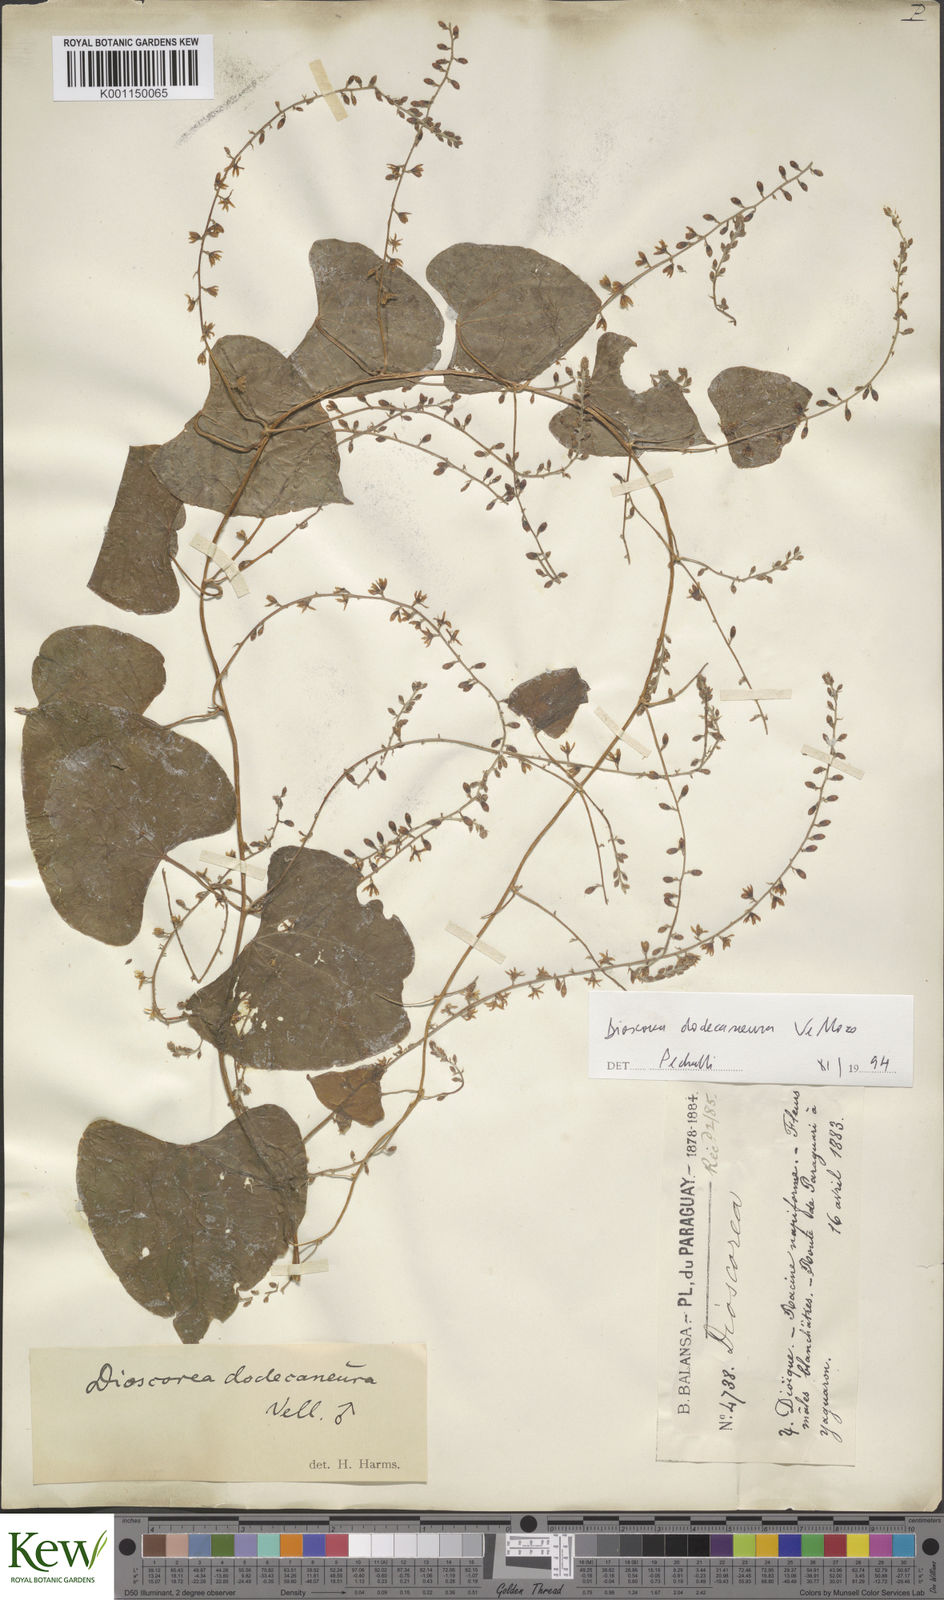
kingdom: Plantae
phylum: Tracheophyta
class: Liliopsida
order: Dioscoreales
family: Dioscoreaceae
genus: Dioscorea
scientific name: Dioscorea dodecaneura
